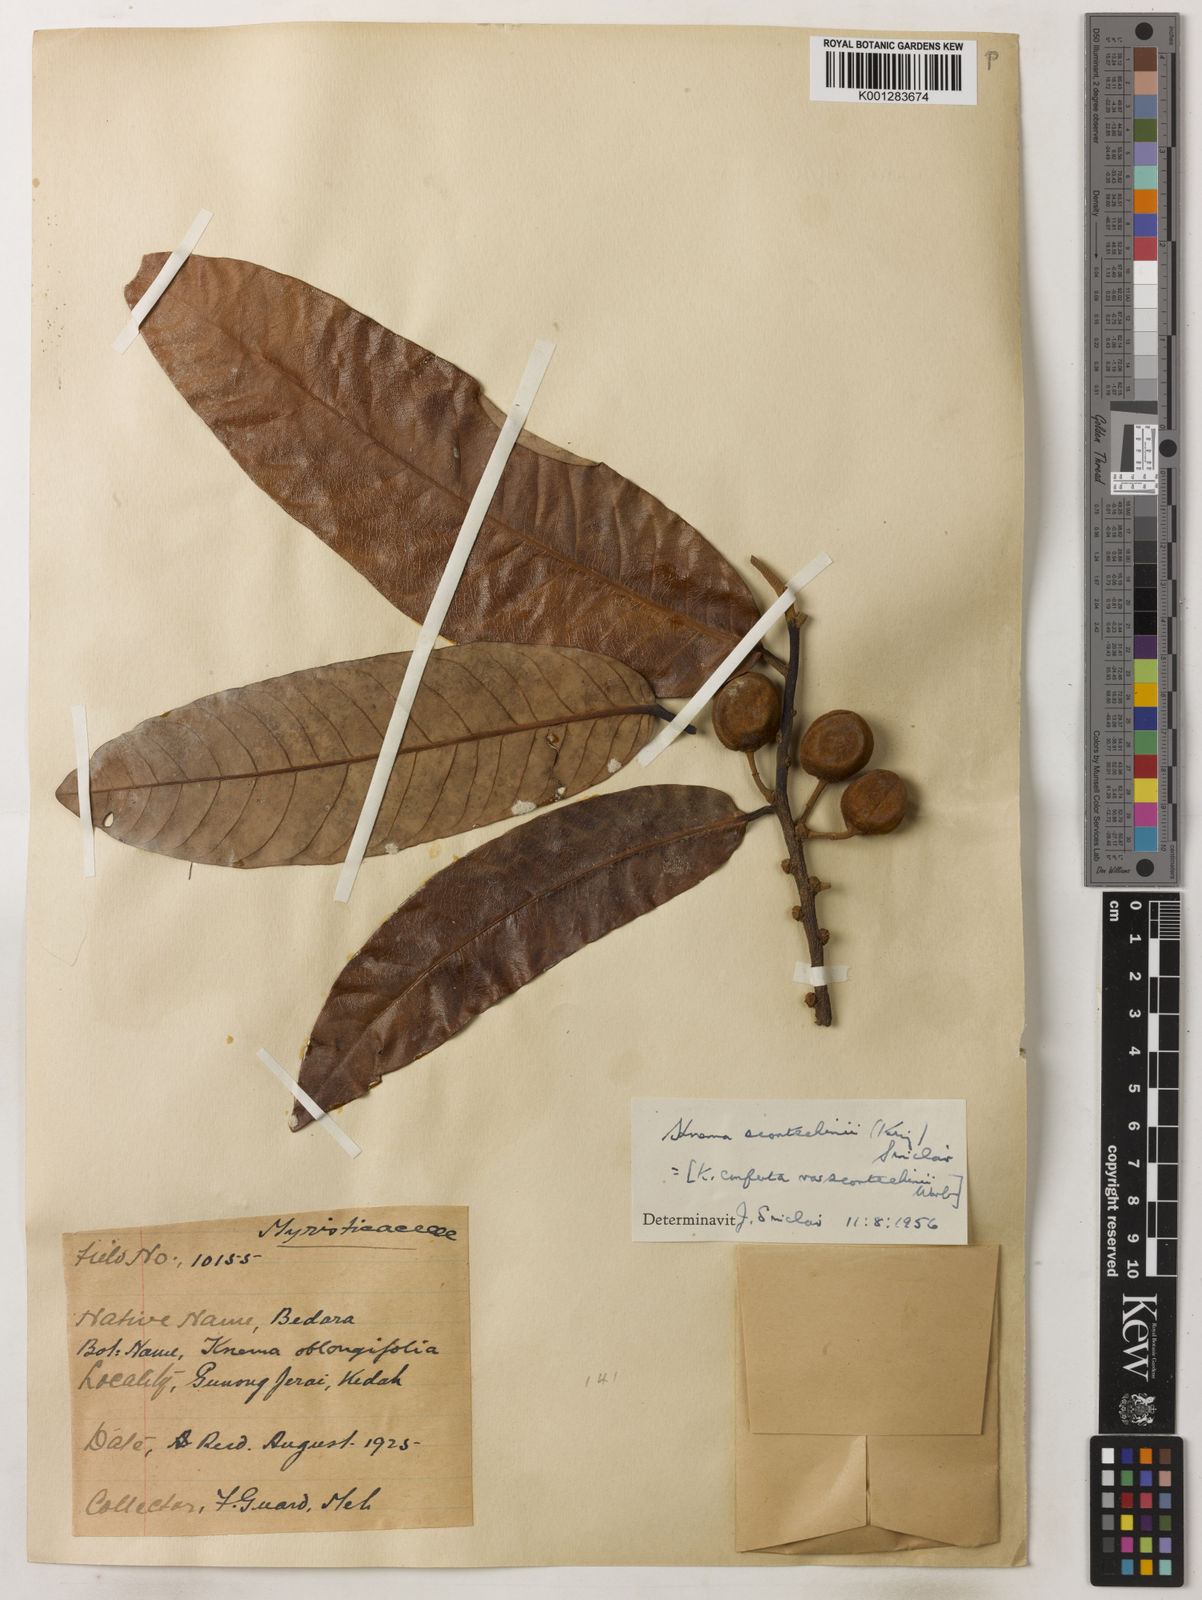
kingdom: Plantae
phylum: Tracheophyta
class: Magnoliopsida
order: Magnoliales
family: Myristicaceae
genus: Knema
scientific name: Knema scortechinii
